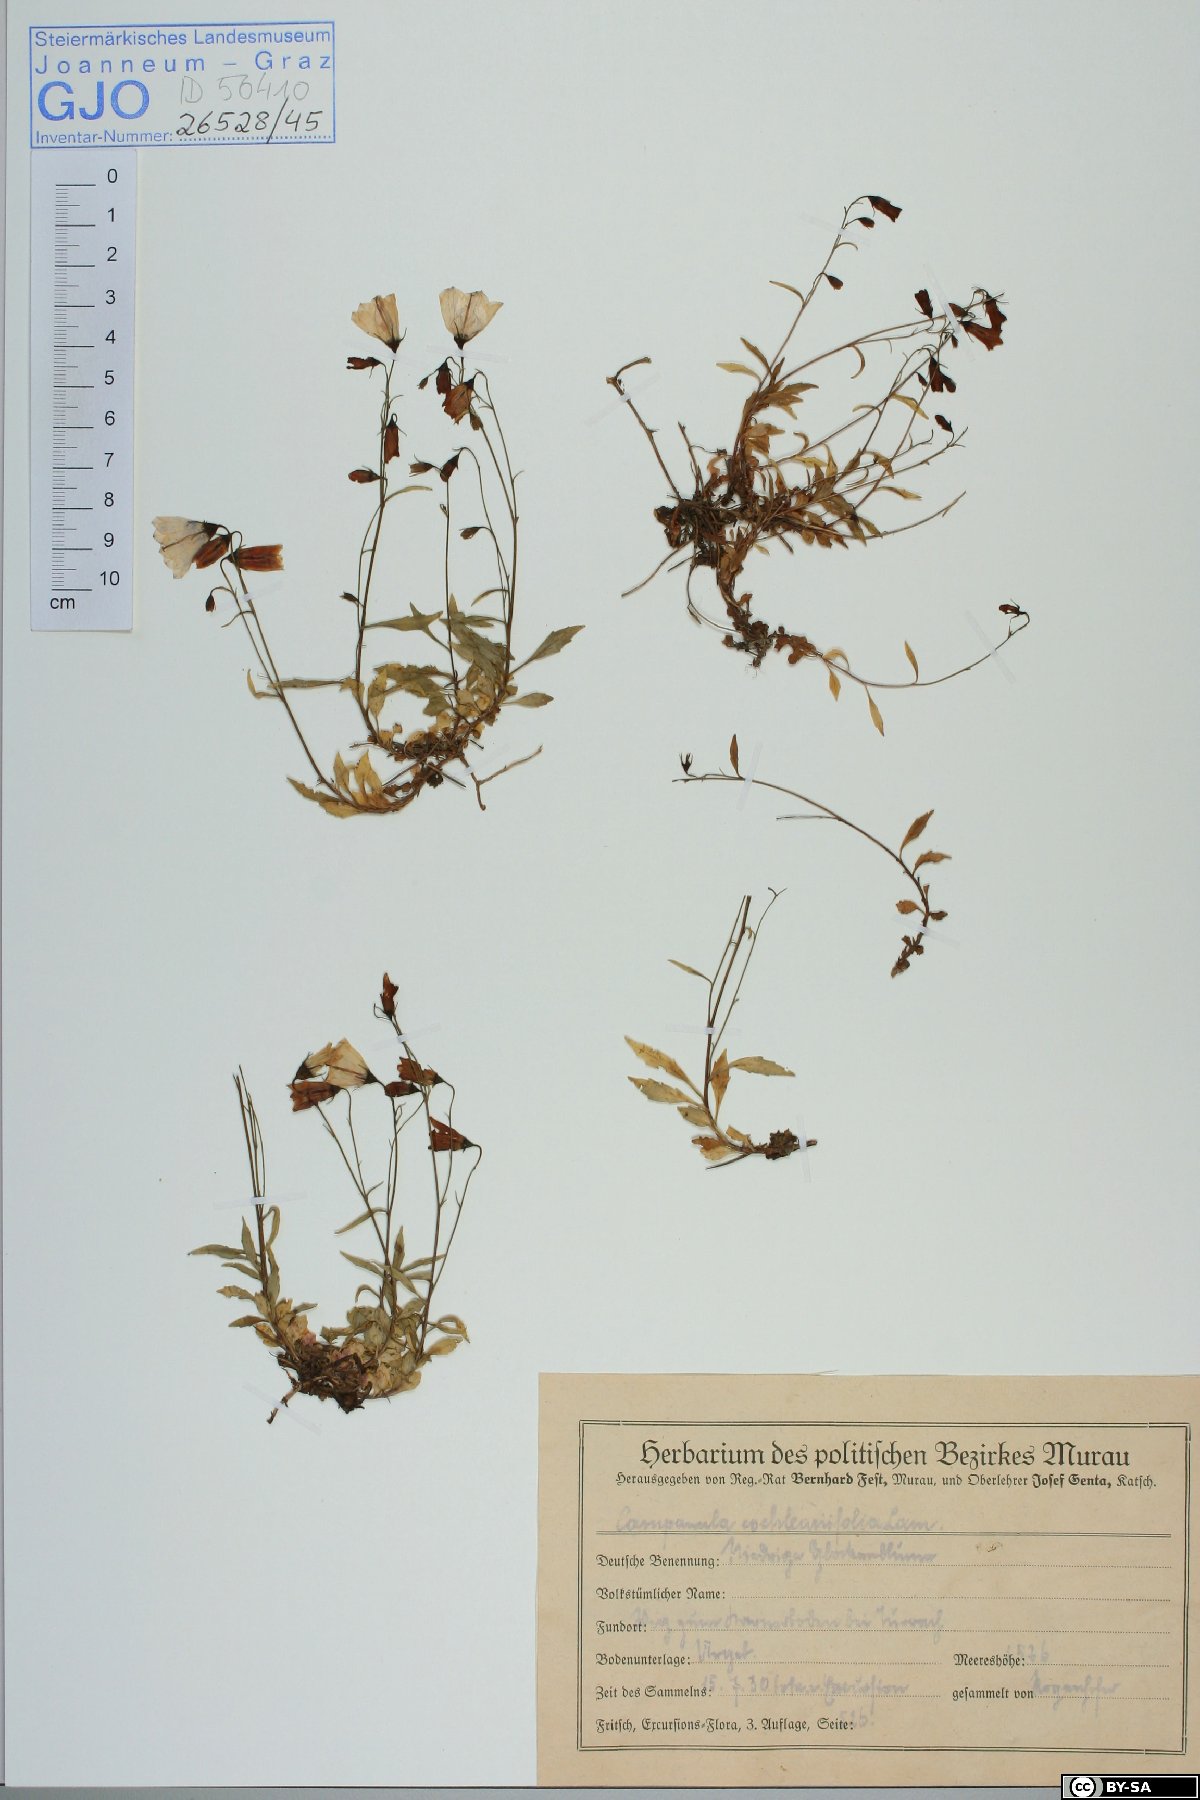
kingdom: Plantae
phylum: Tracheophyta
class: Magnoliopsida
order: Asterales
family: Campanulaceae
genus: Campanula
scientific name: Campanula cochleariifolia
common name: Fairies'-thimbles
